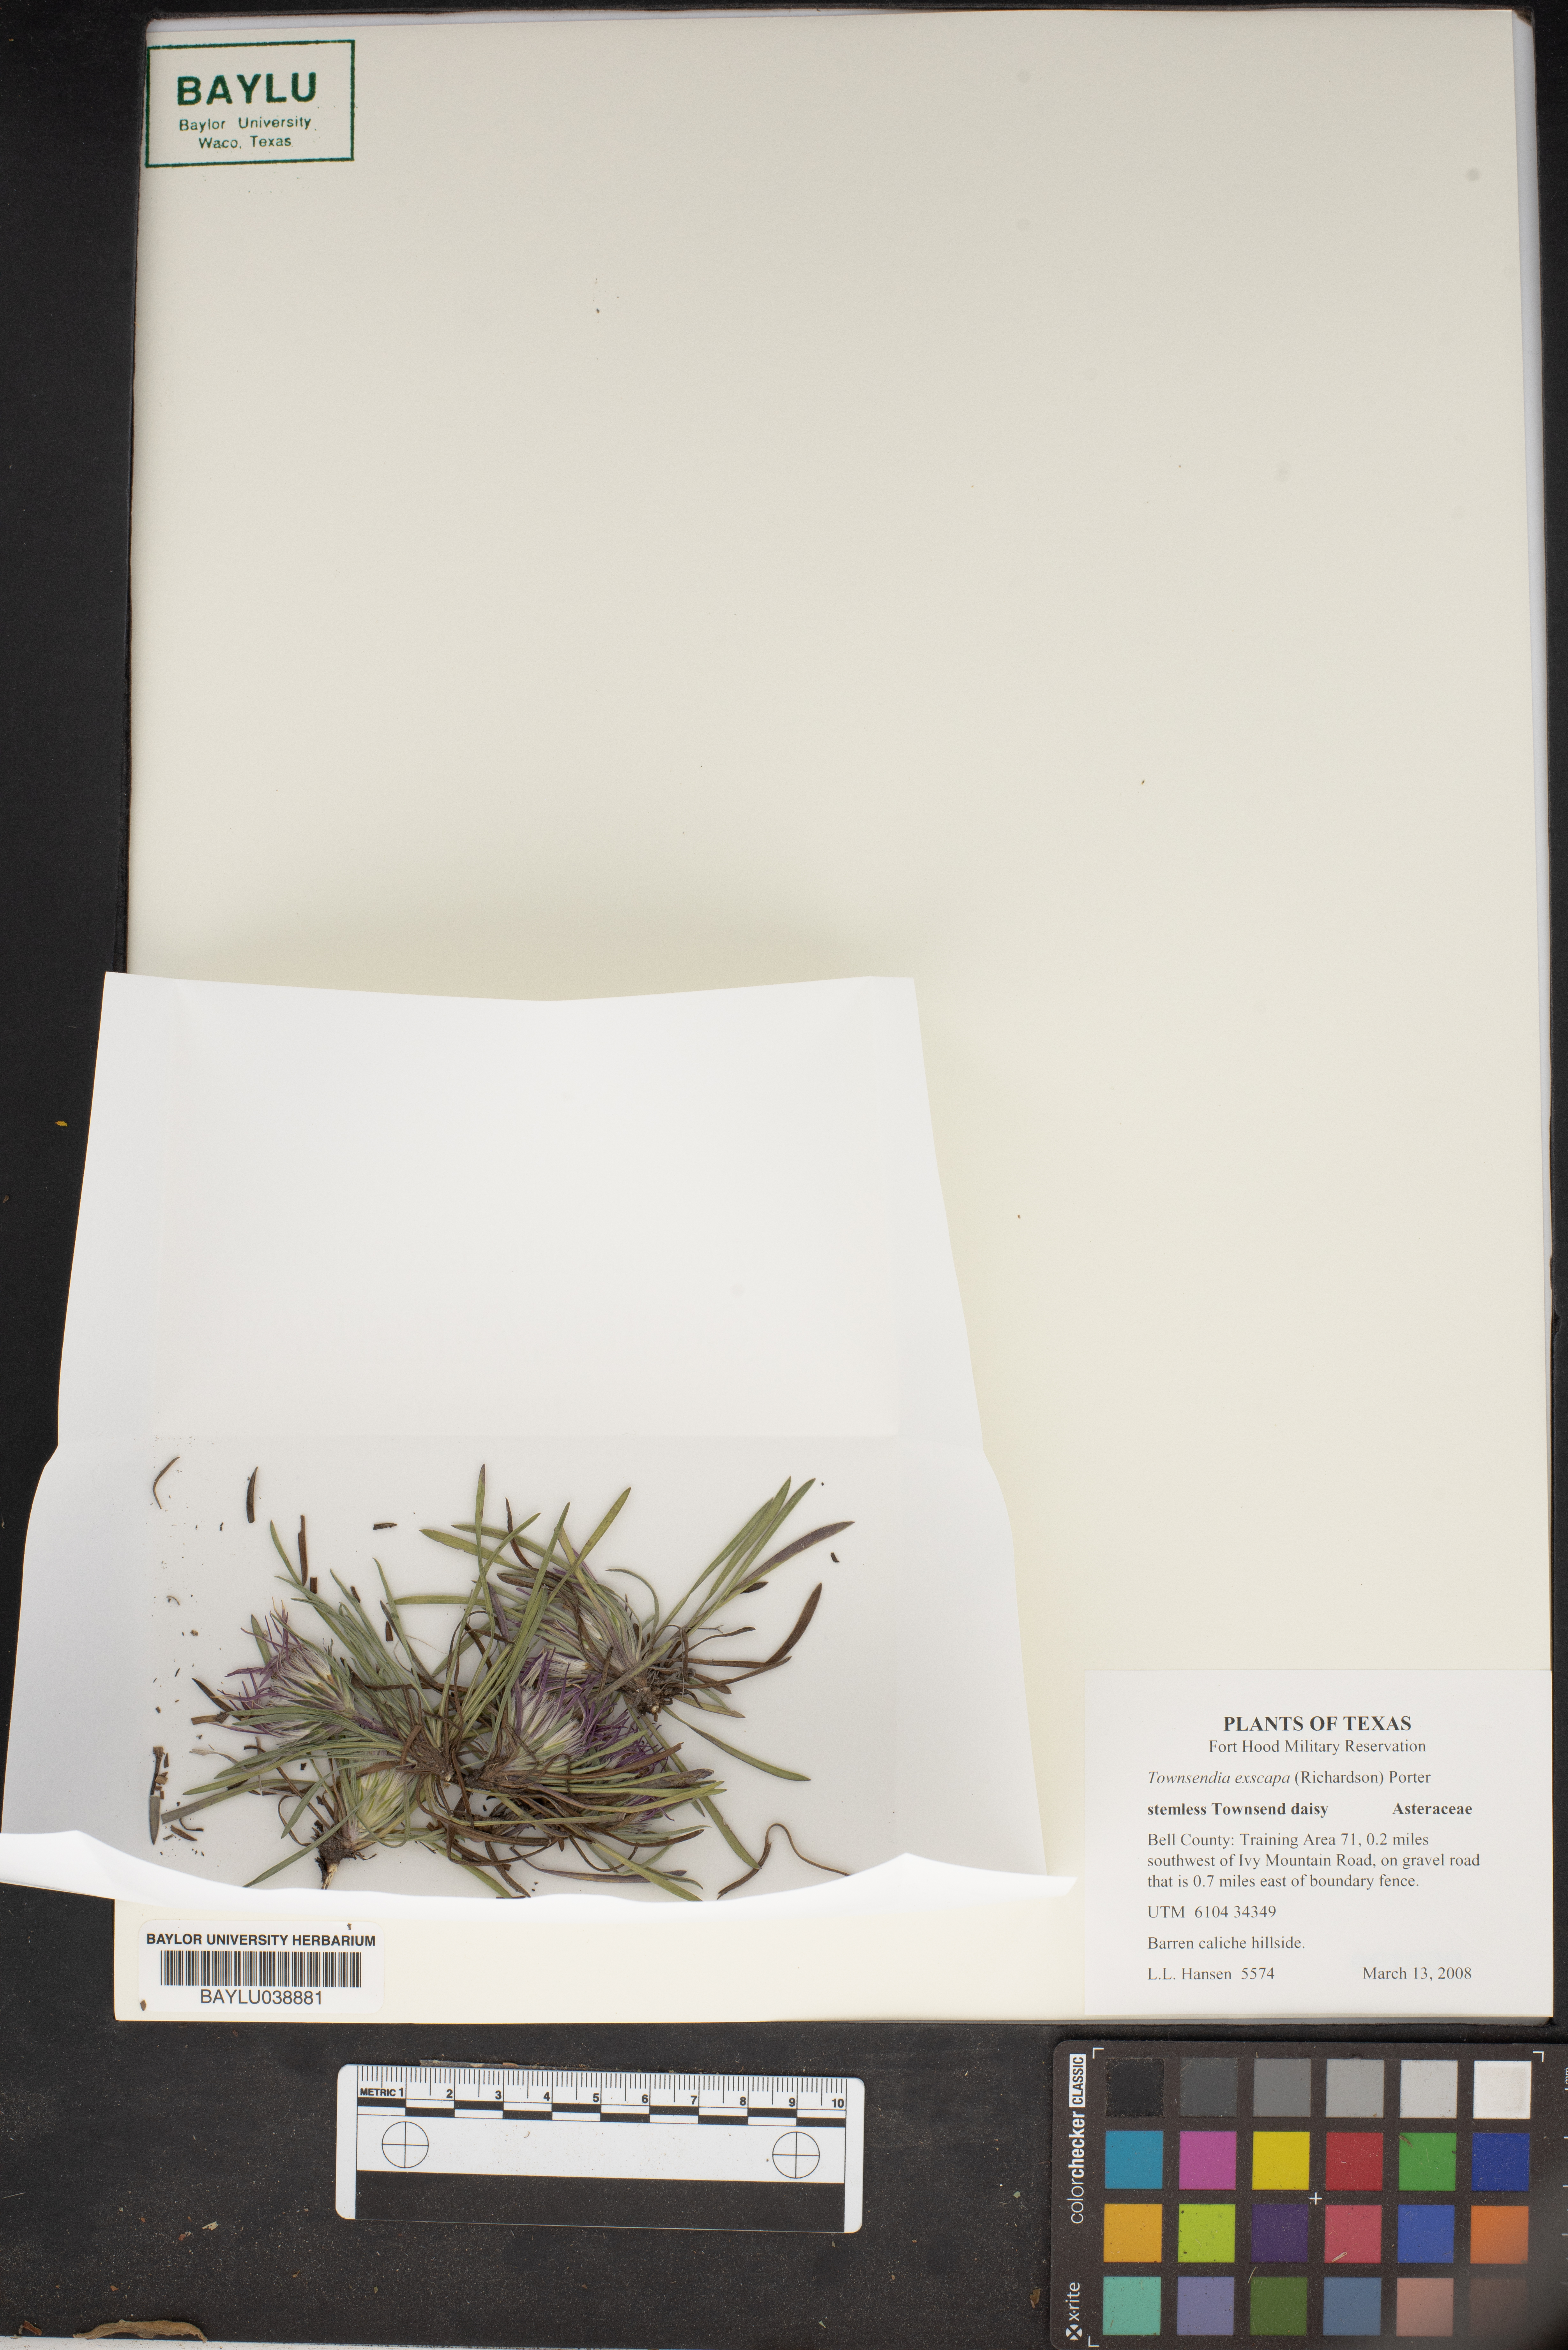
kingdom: Plantae
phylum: Tracheophyta
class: Magnoliopsida
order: Asterales
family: Asteraceae
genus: Townsendia
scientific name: Townsendia exscapa
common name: Dwarf townsendia
